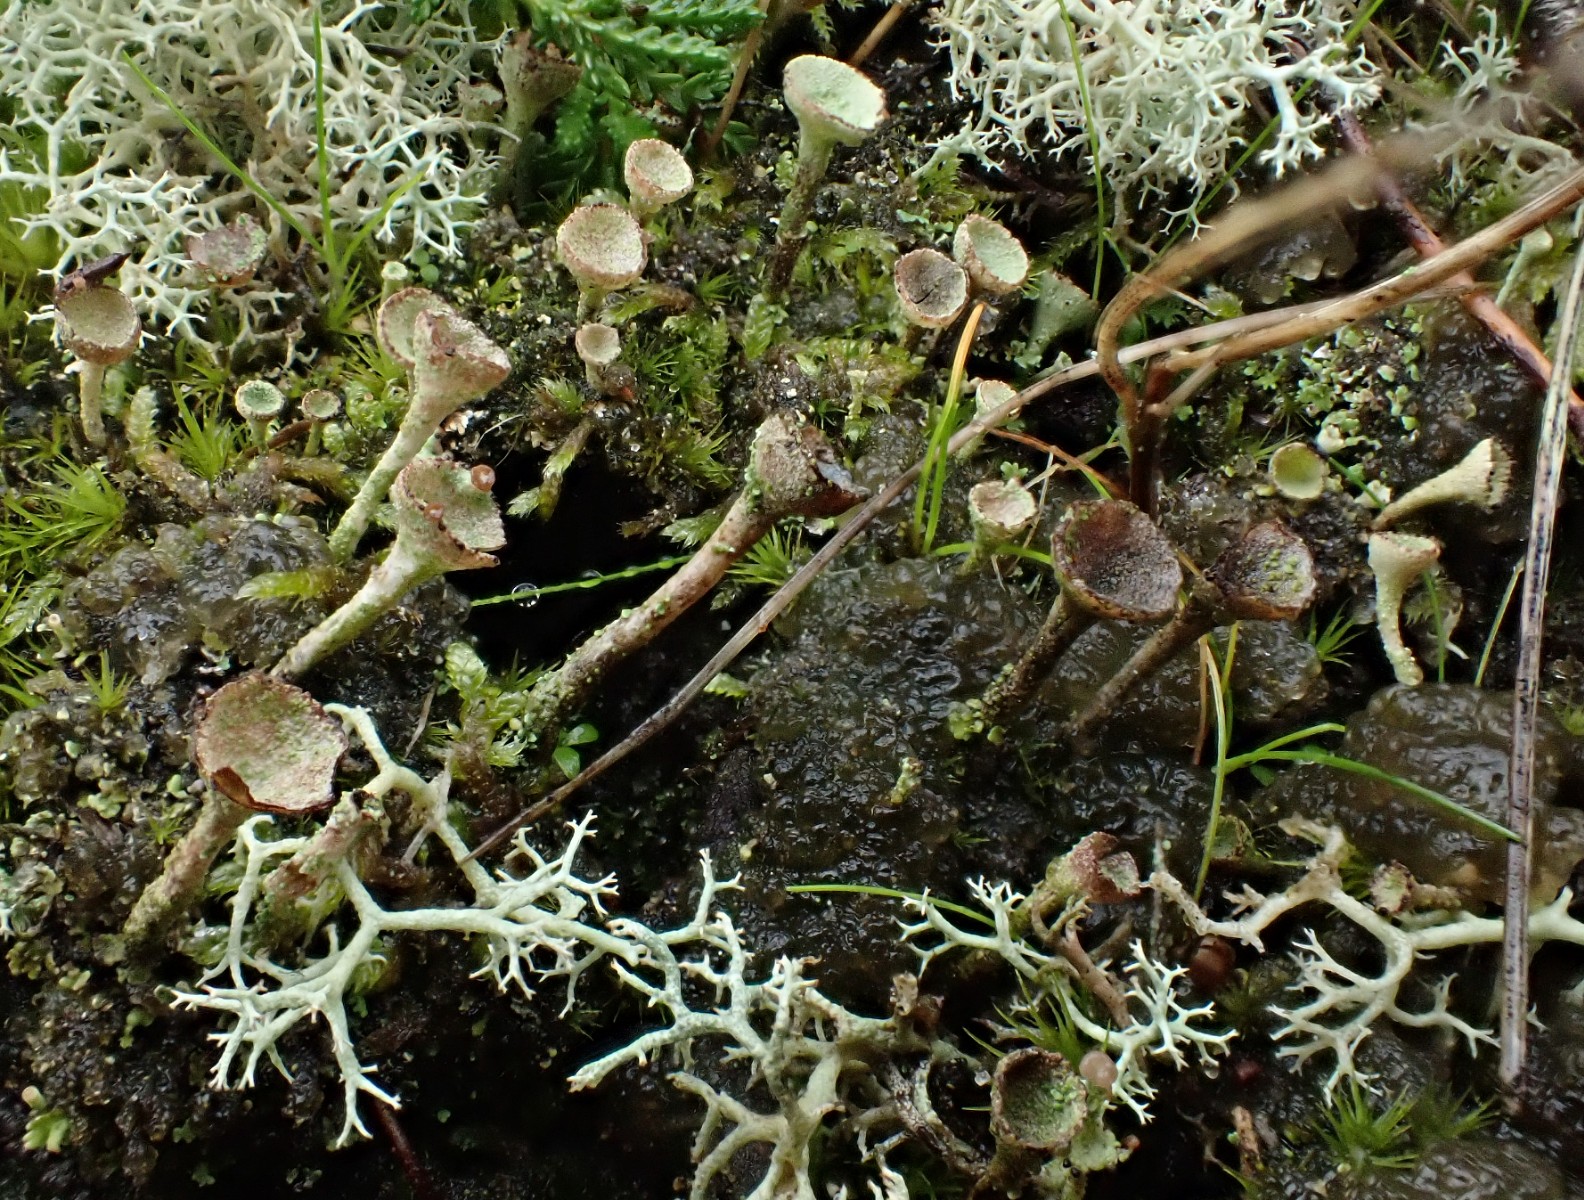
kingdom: Fungi
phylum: Ascomycota
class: Lecanoromycetes
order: Lecanorales
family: Cladoniaceae
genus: Cladonia
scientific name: Cladonia
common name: brungrøn bægerlav
